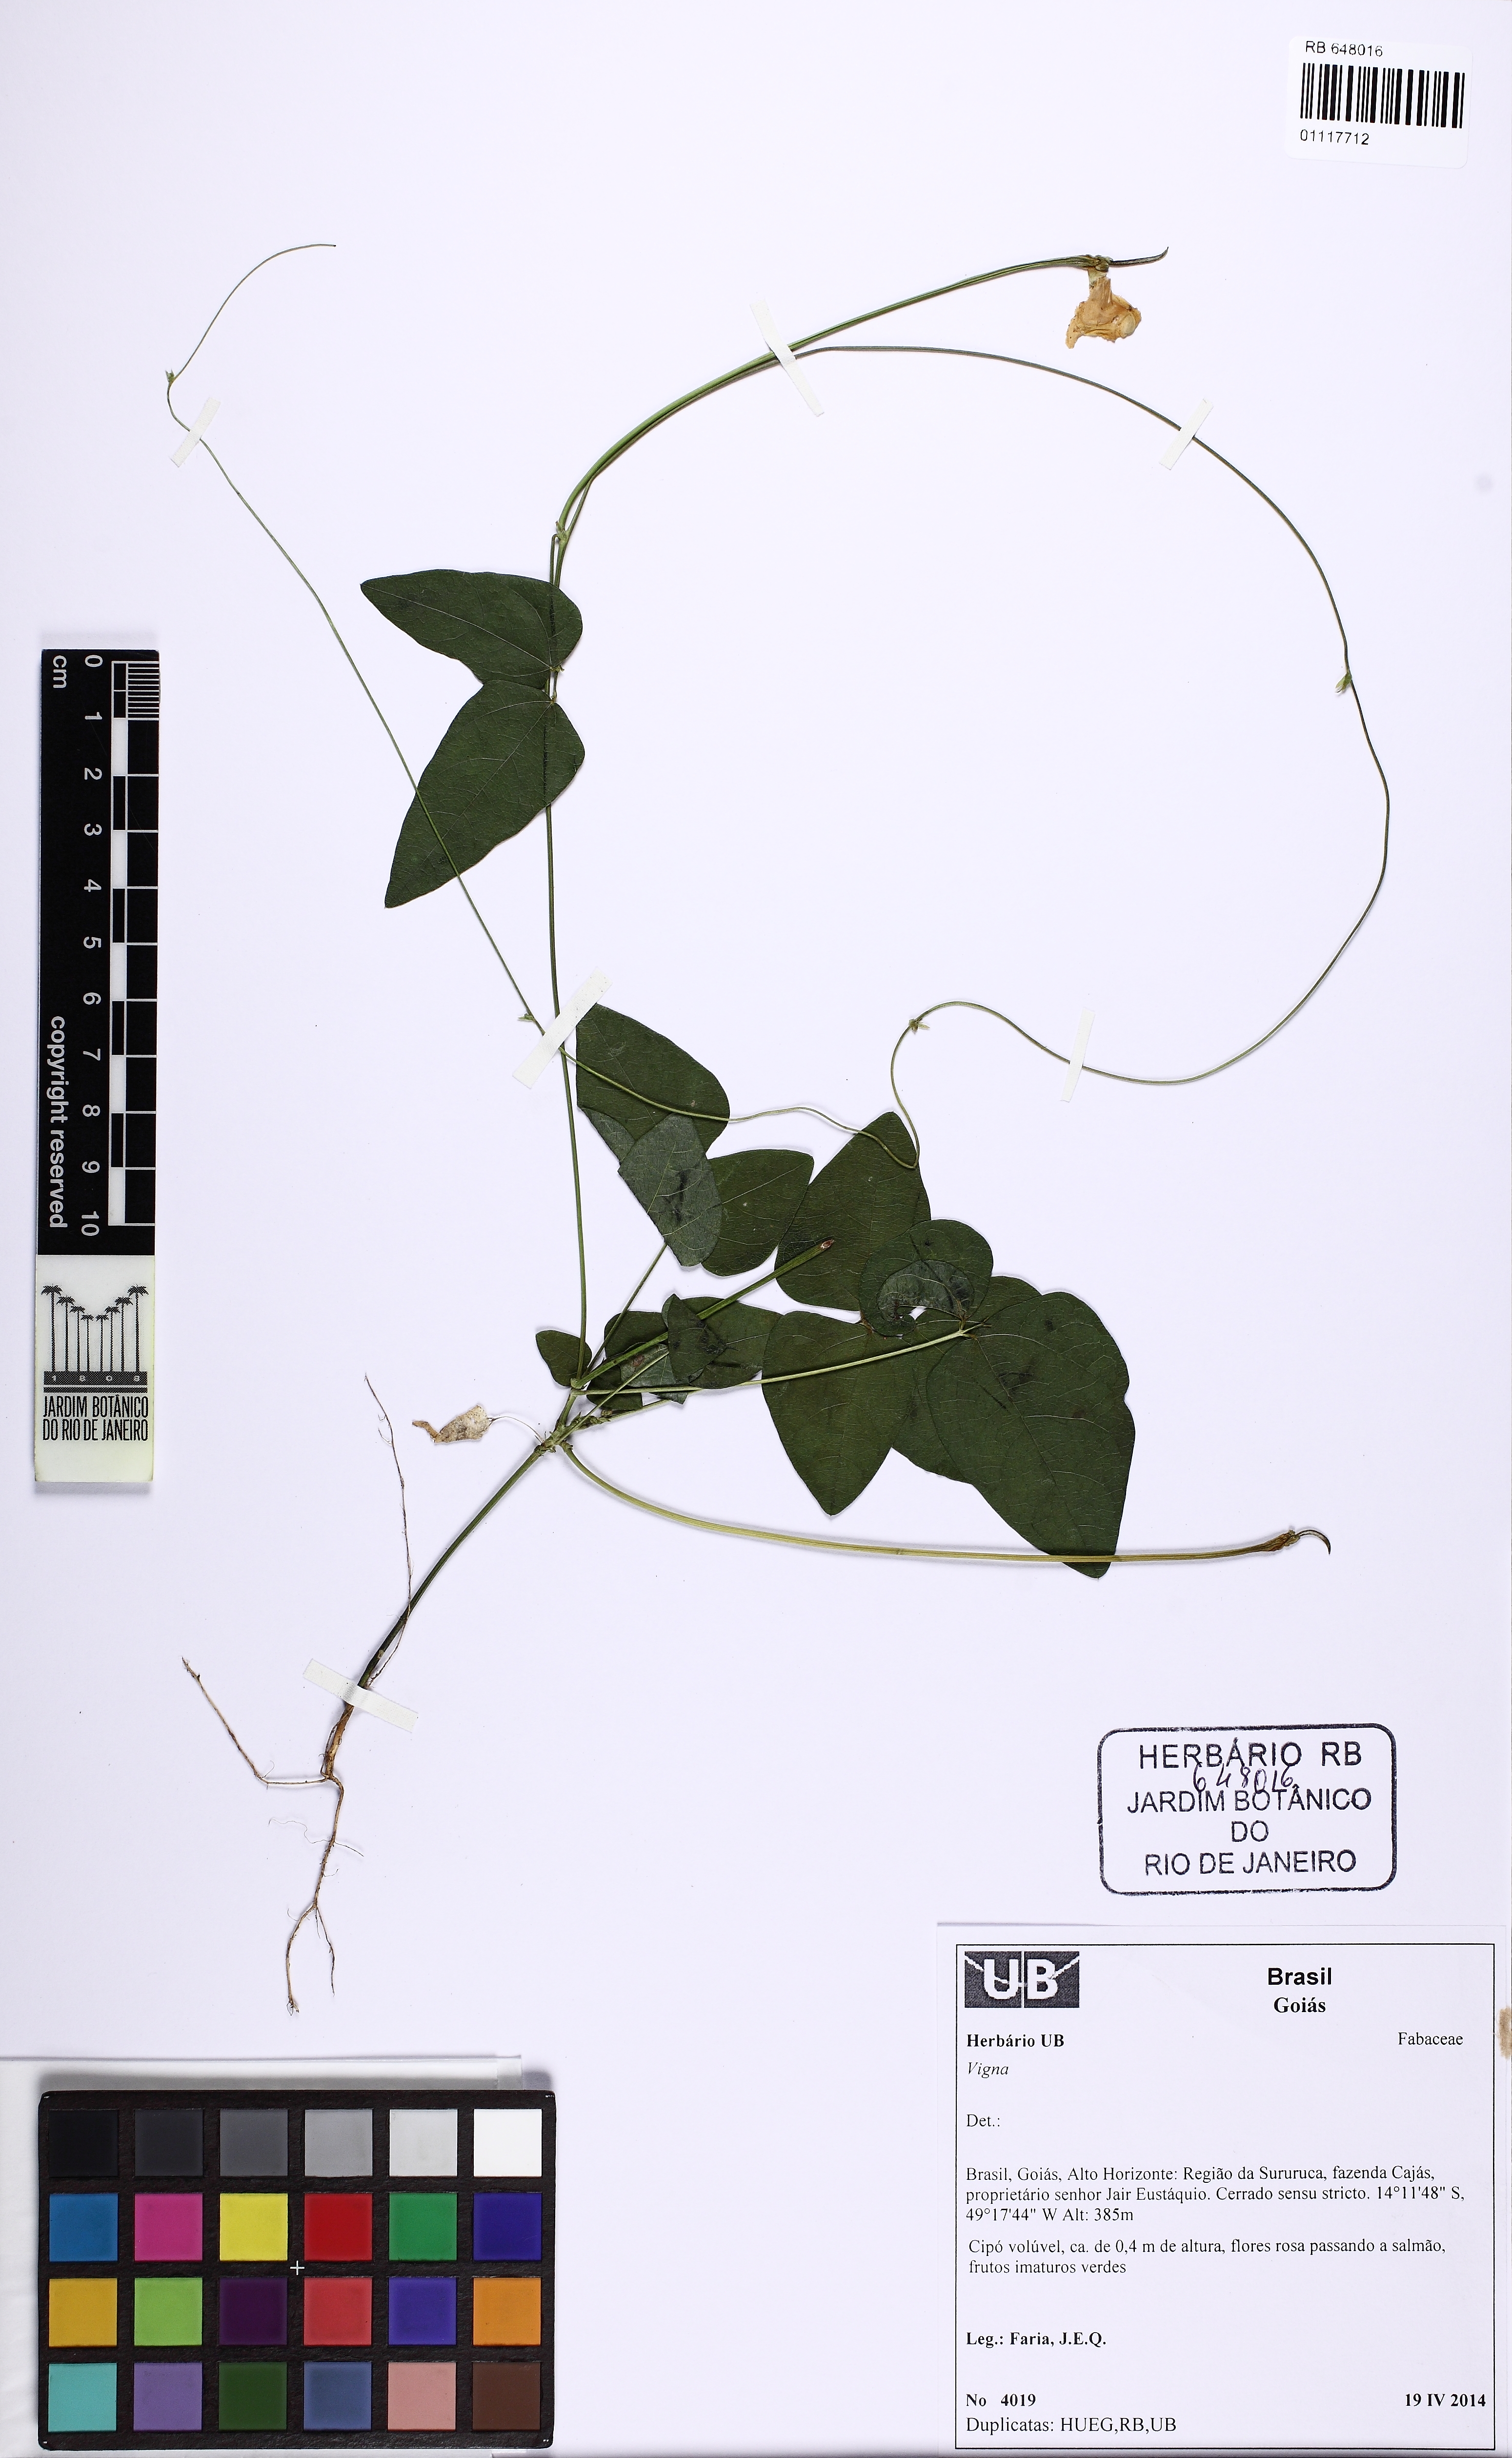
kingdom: Plantae
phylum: Tracheophyta
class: Magnoliopsida
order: Fabales
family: Fabaceae
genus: Ancistrotropis
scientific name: Ancistrotropis clitorioides
